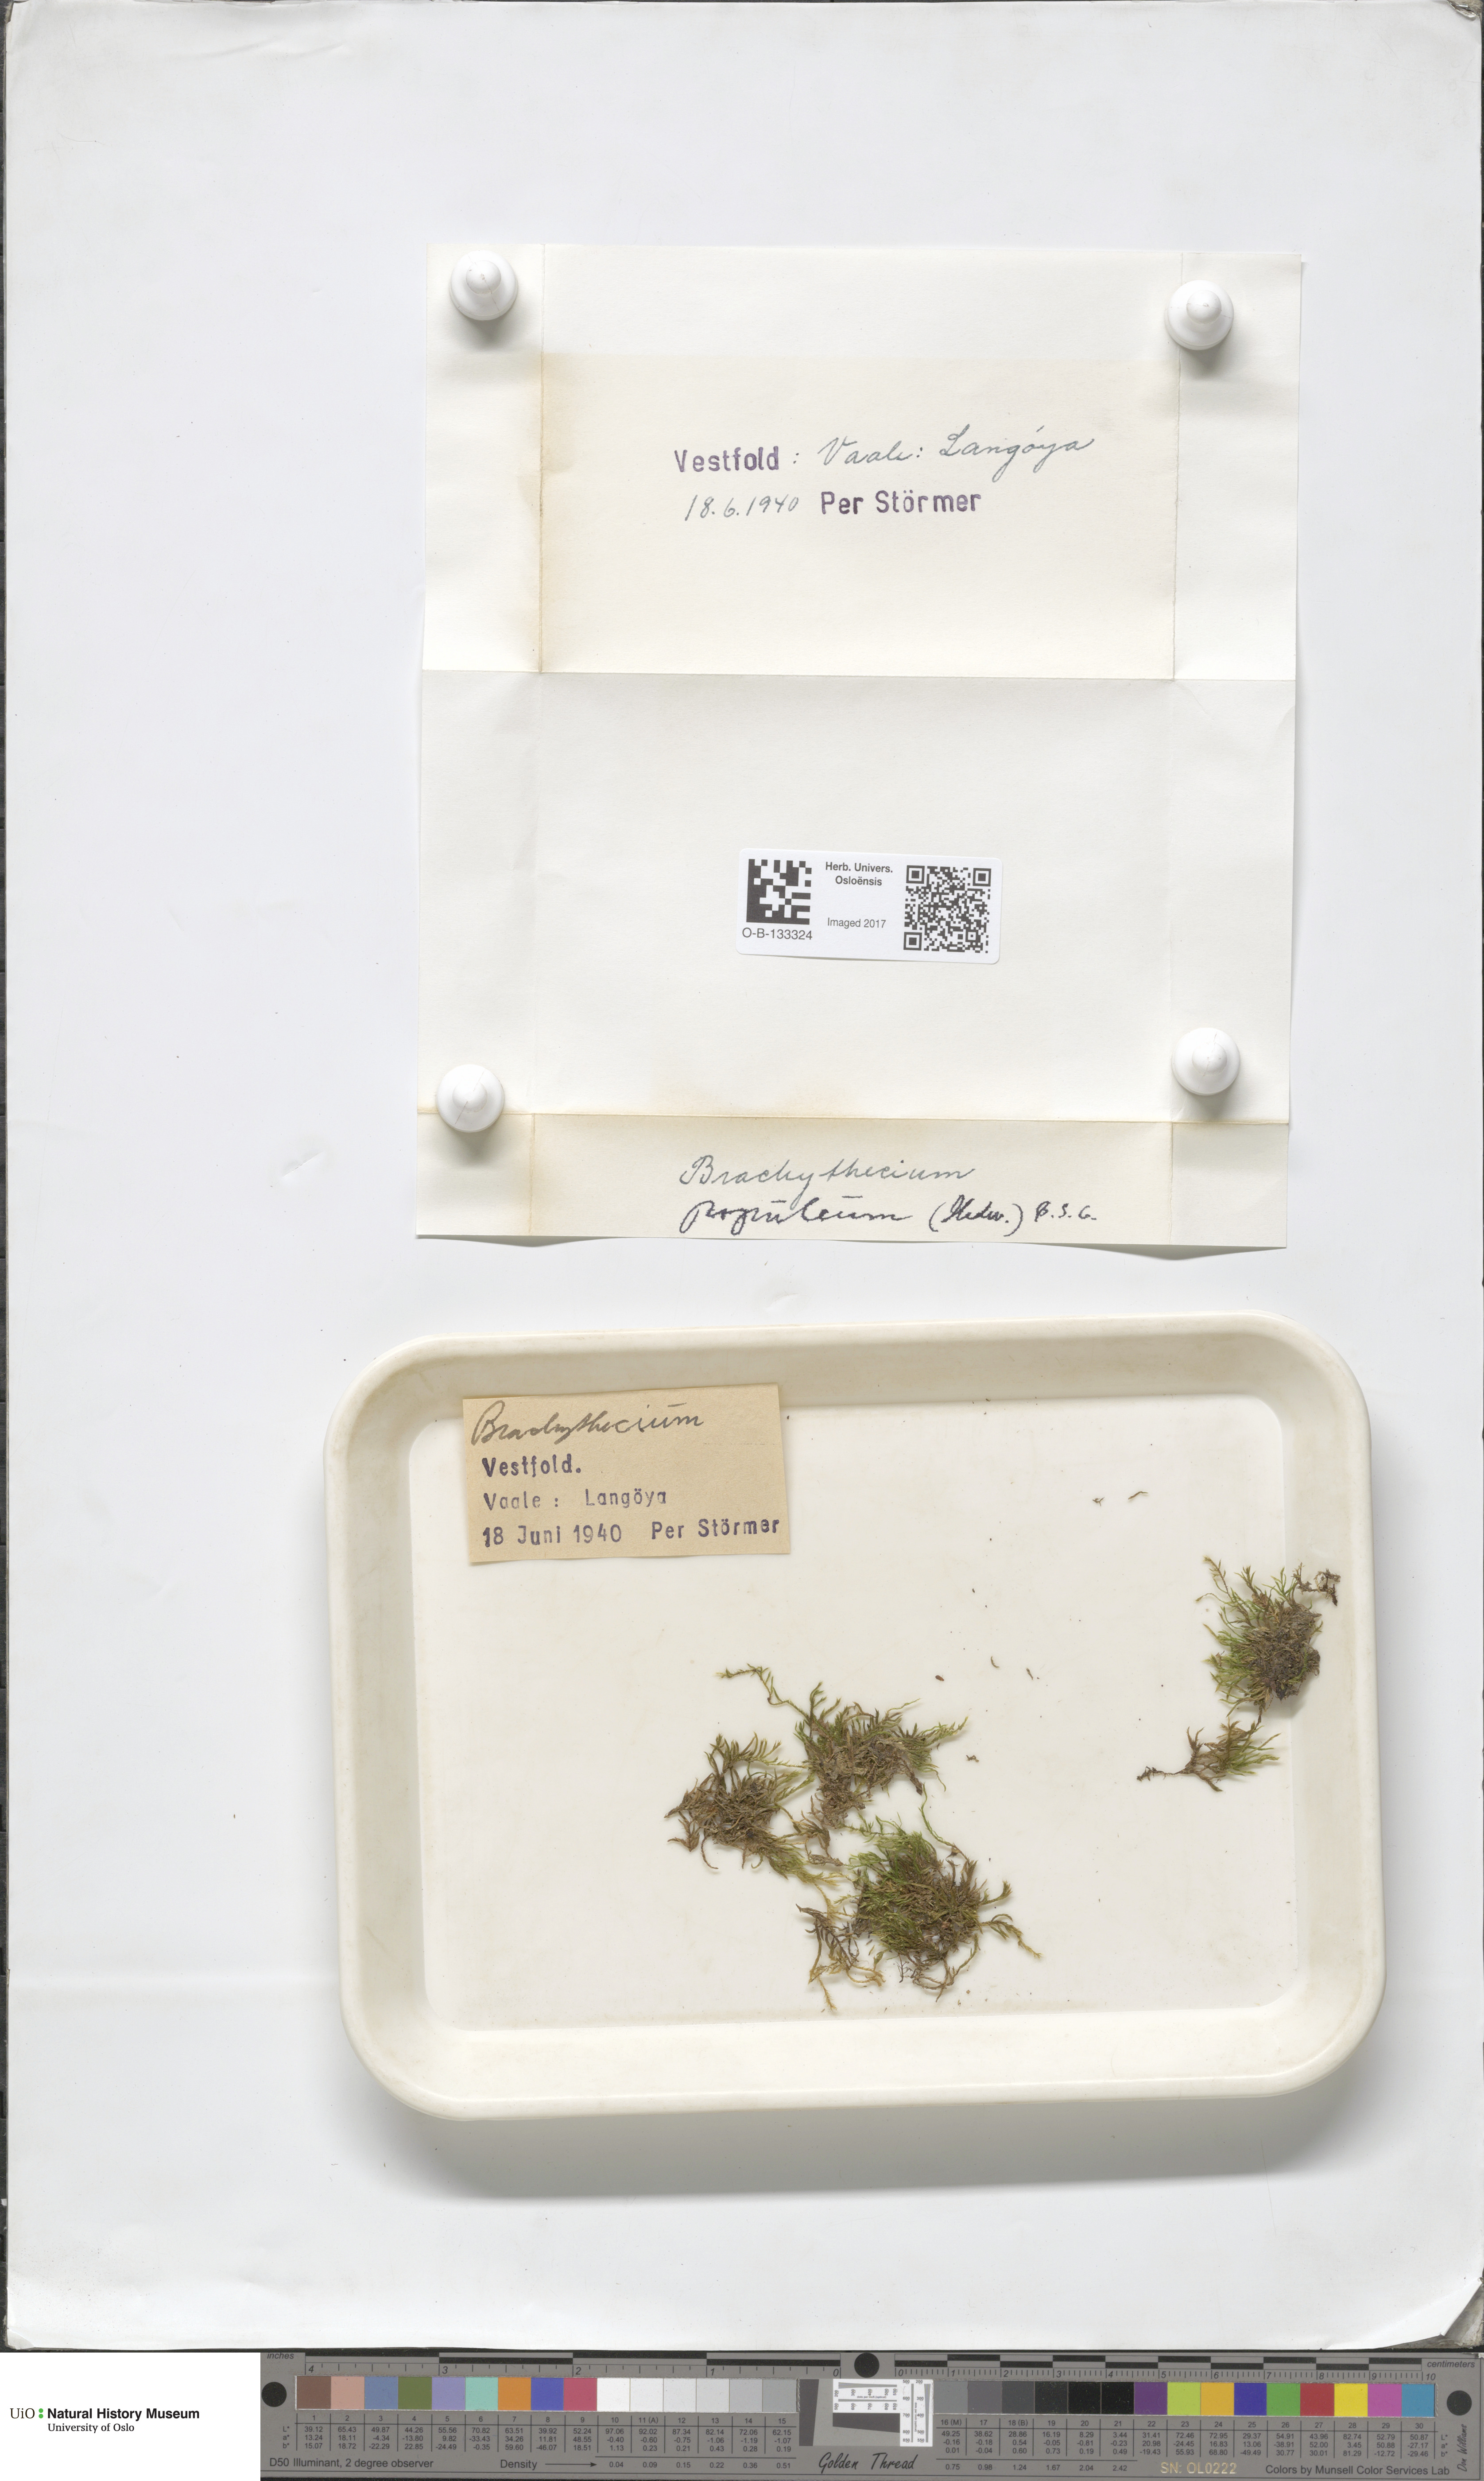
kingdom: Plantae
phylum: Bryophyta
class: Bryopsida
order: Hypnales
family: Brachytheciaceae
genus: Sciuro-hypnum
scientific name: Sciuro-hypnum plumosum
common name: Rusty feather-moss
